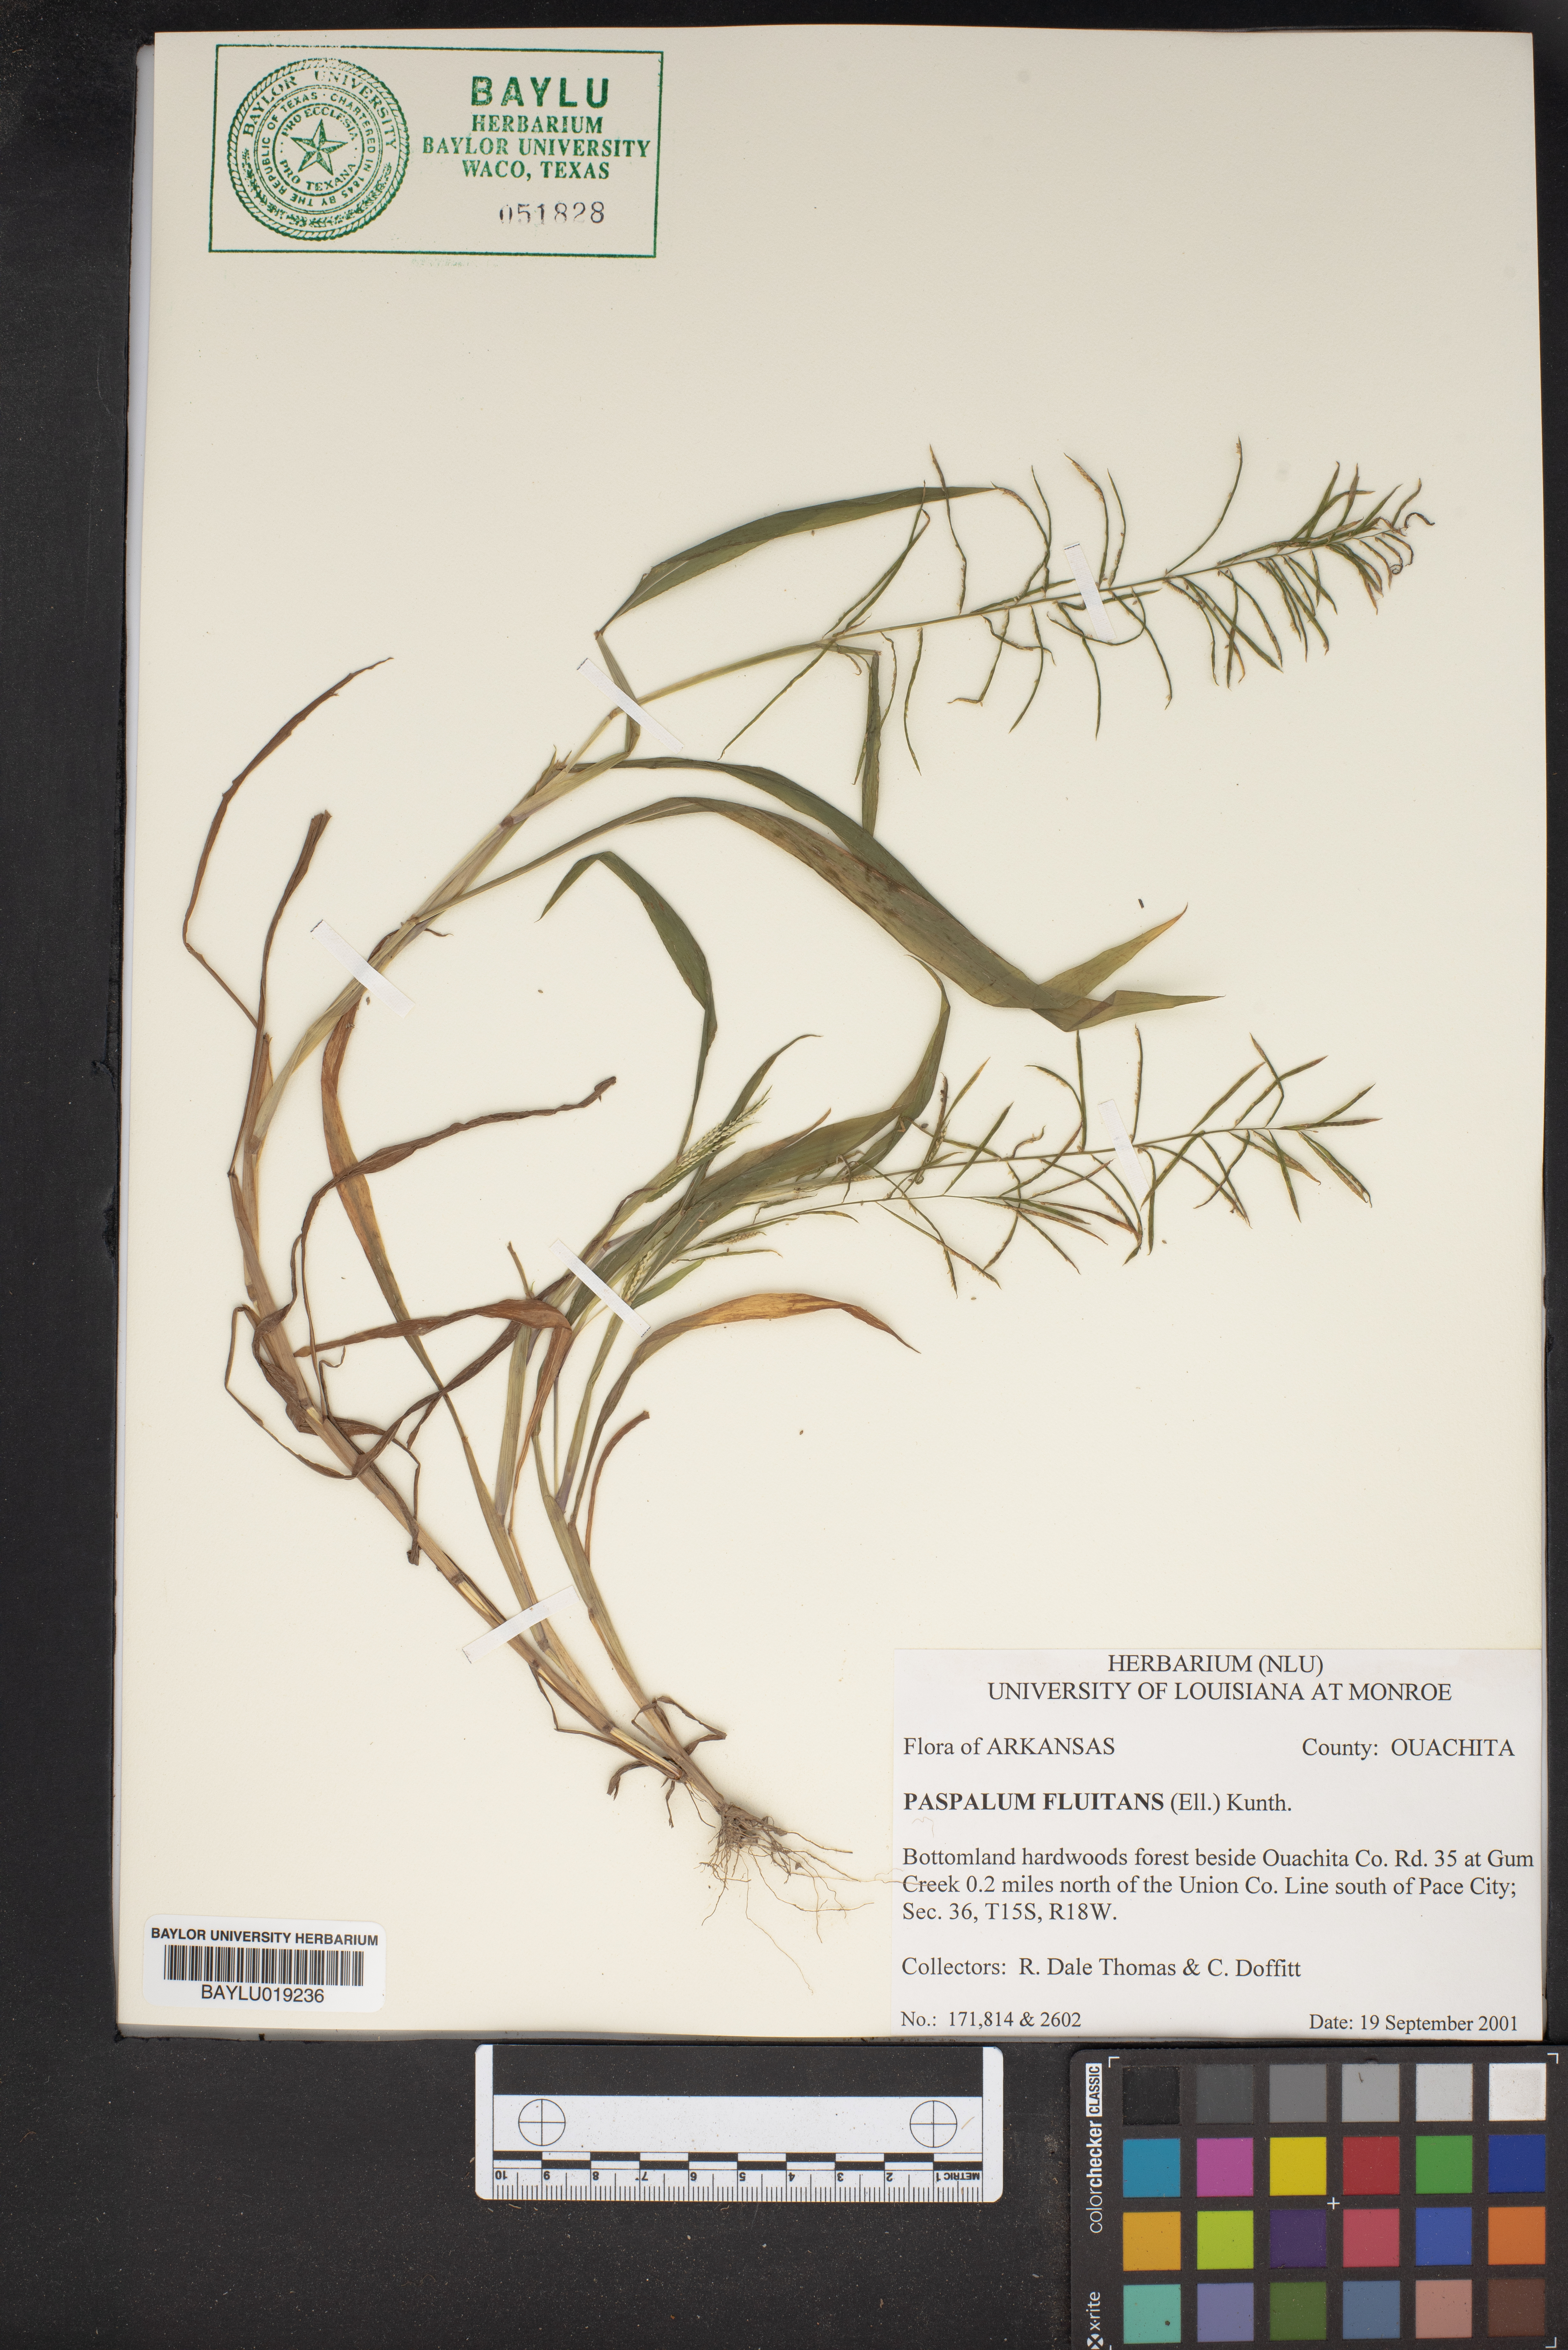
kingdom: Plantae
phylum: Tracheophyta
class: Liliopsida
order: Poales
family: Poaceae
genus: Paspalum
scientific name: Paspalum repens
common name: Water paspalum
